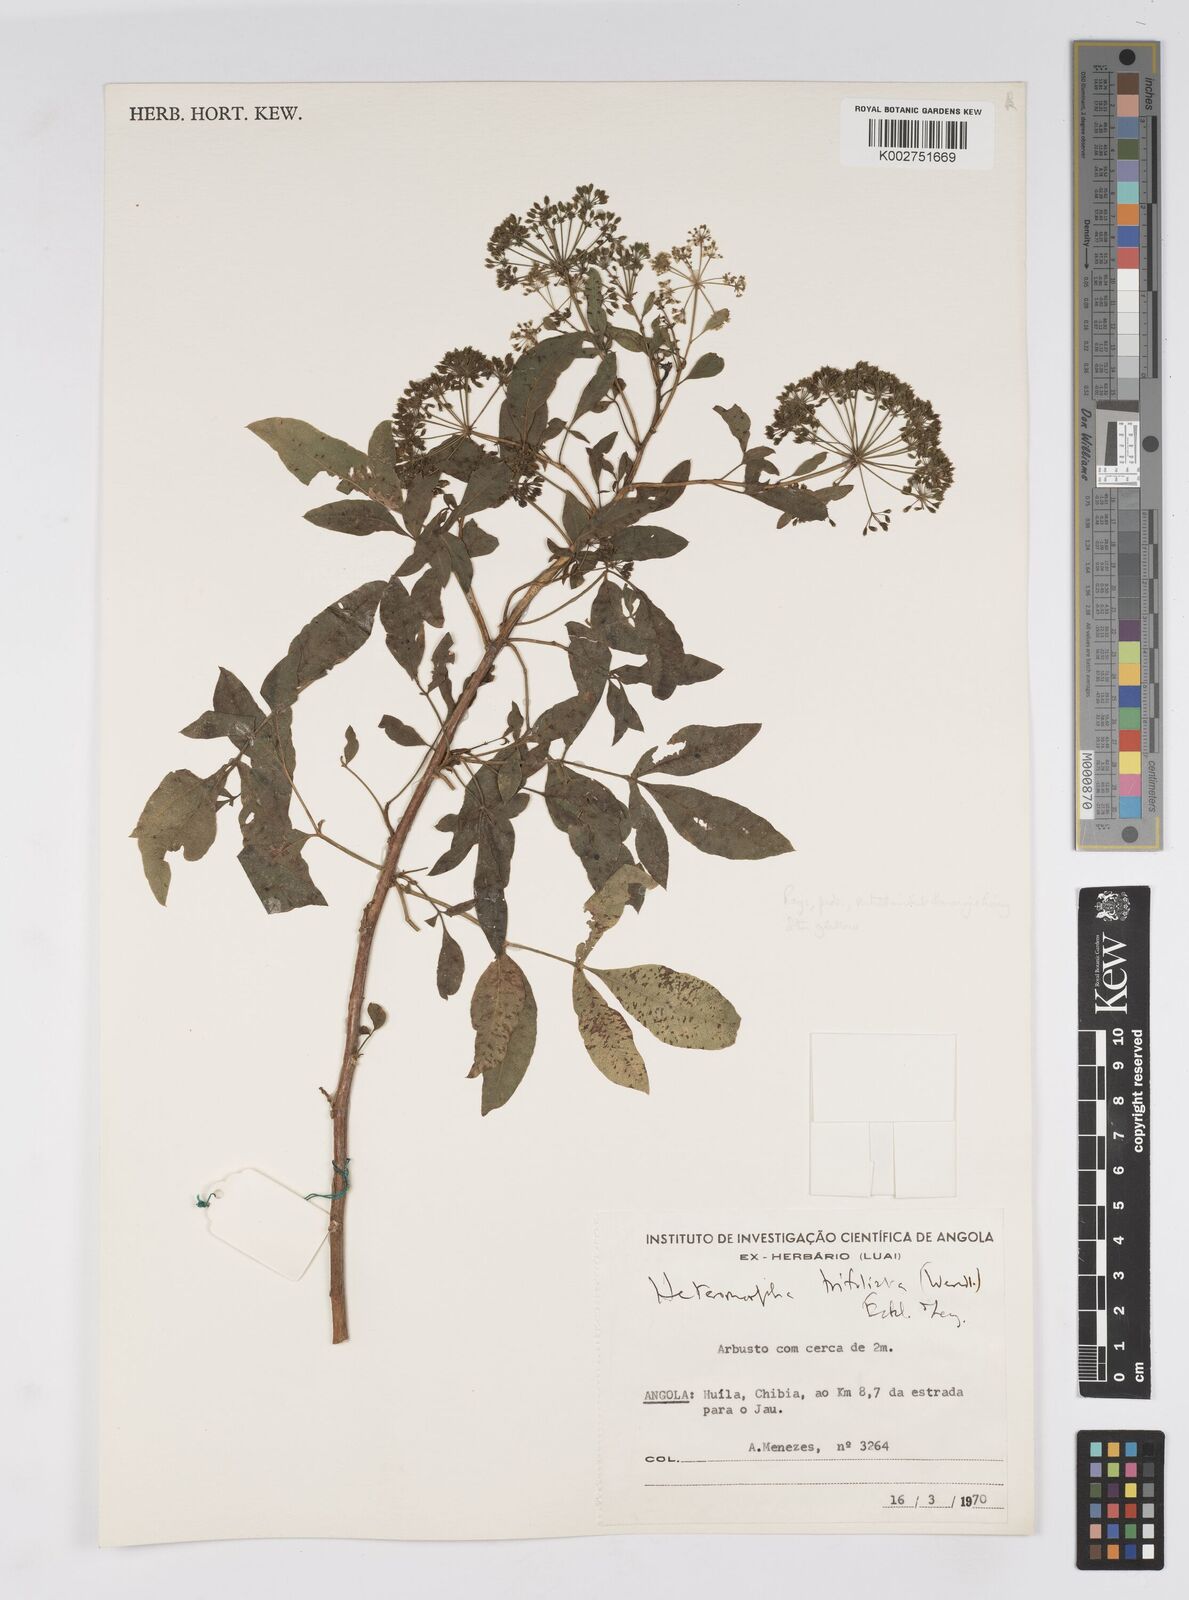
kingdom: Plantae
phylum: Tracheophyta
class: Magnoliopsida
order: Apiales
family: Apiaceae
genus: Heteromorpha
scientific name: Heteromorpha arborescens
